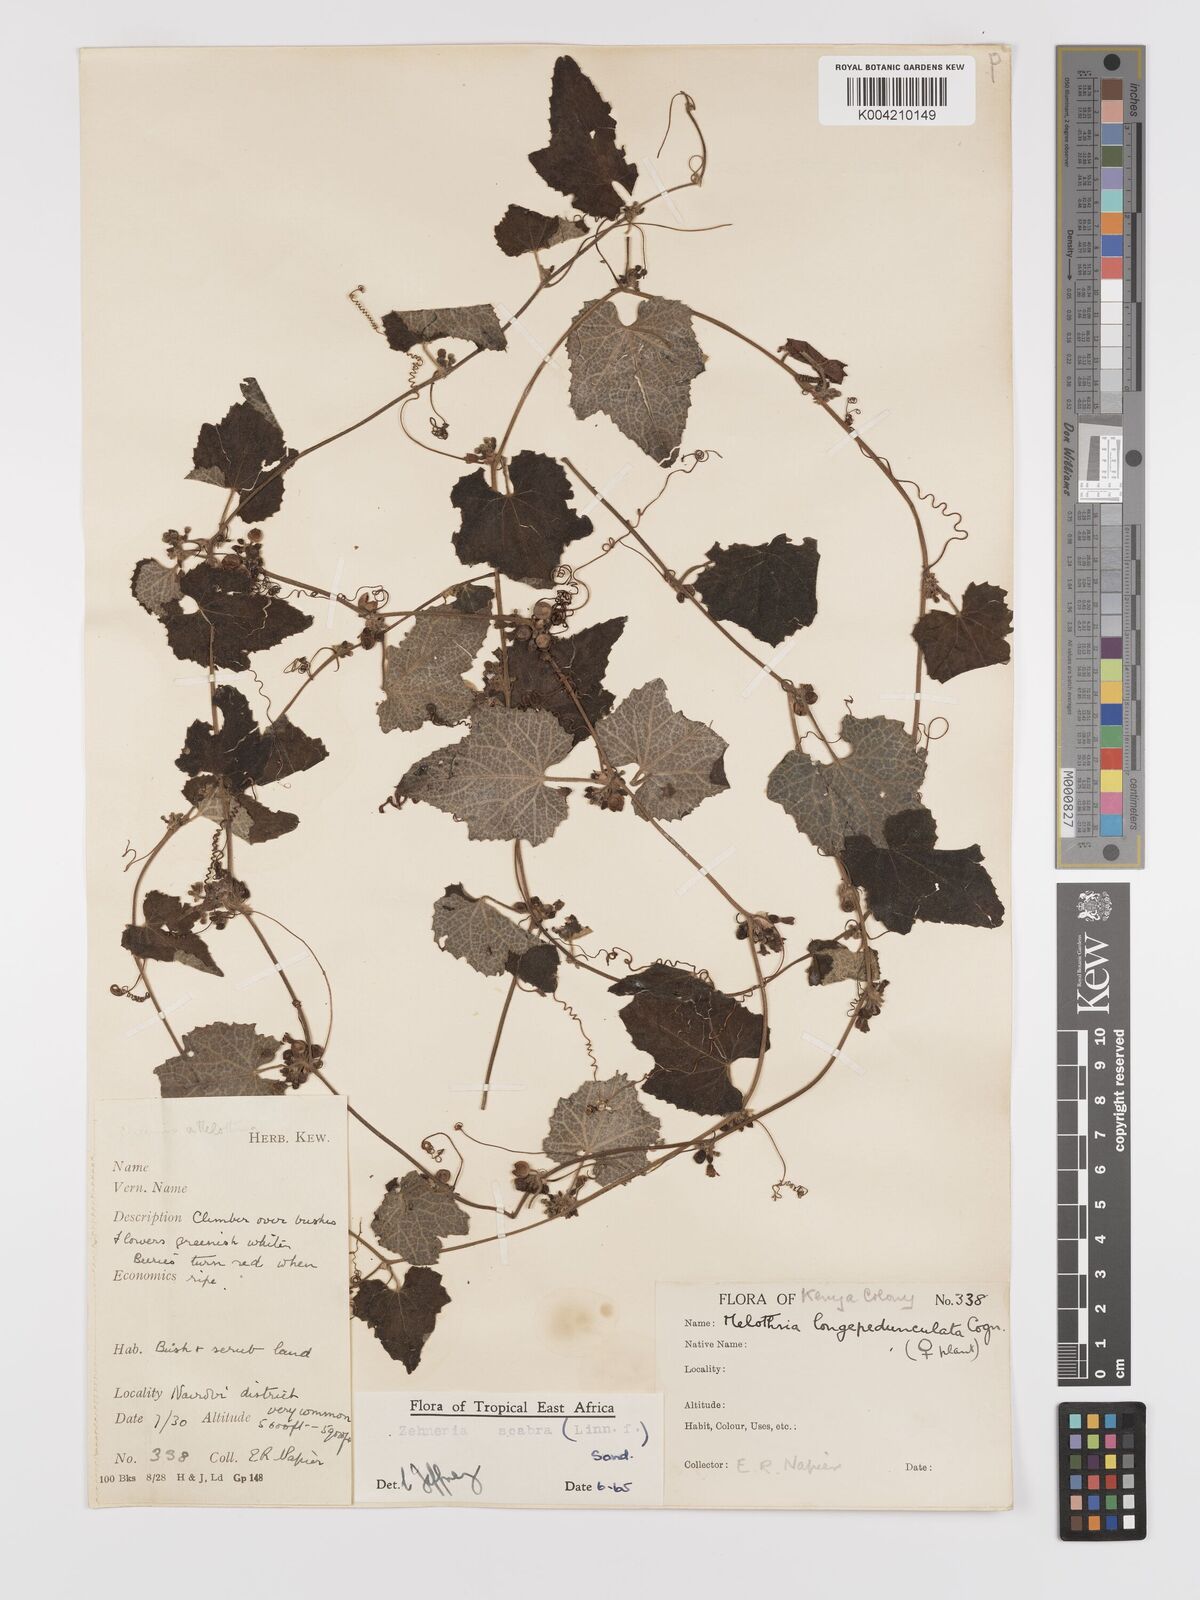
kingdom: Plantae
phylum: Tracheophyta
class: Magnoliopsida
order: Cucurbitales
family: Cucurbitaceae
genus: Zehneria
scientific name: Zehneria scabra
